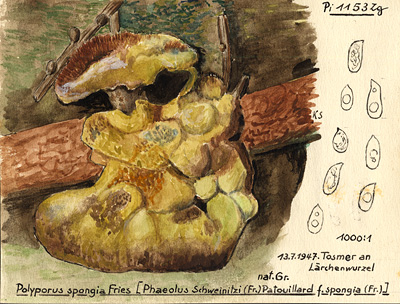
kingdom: Fungi
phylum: Basidiomycota
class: Agaricomycetes
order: Polyporales
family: Laetiporaceae
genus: Phaeolus
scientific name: Phaeolus schweinitzii
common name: Dyer's mazegill
